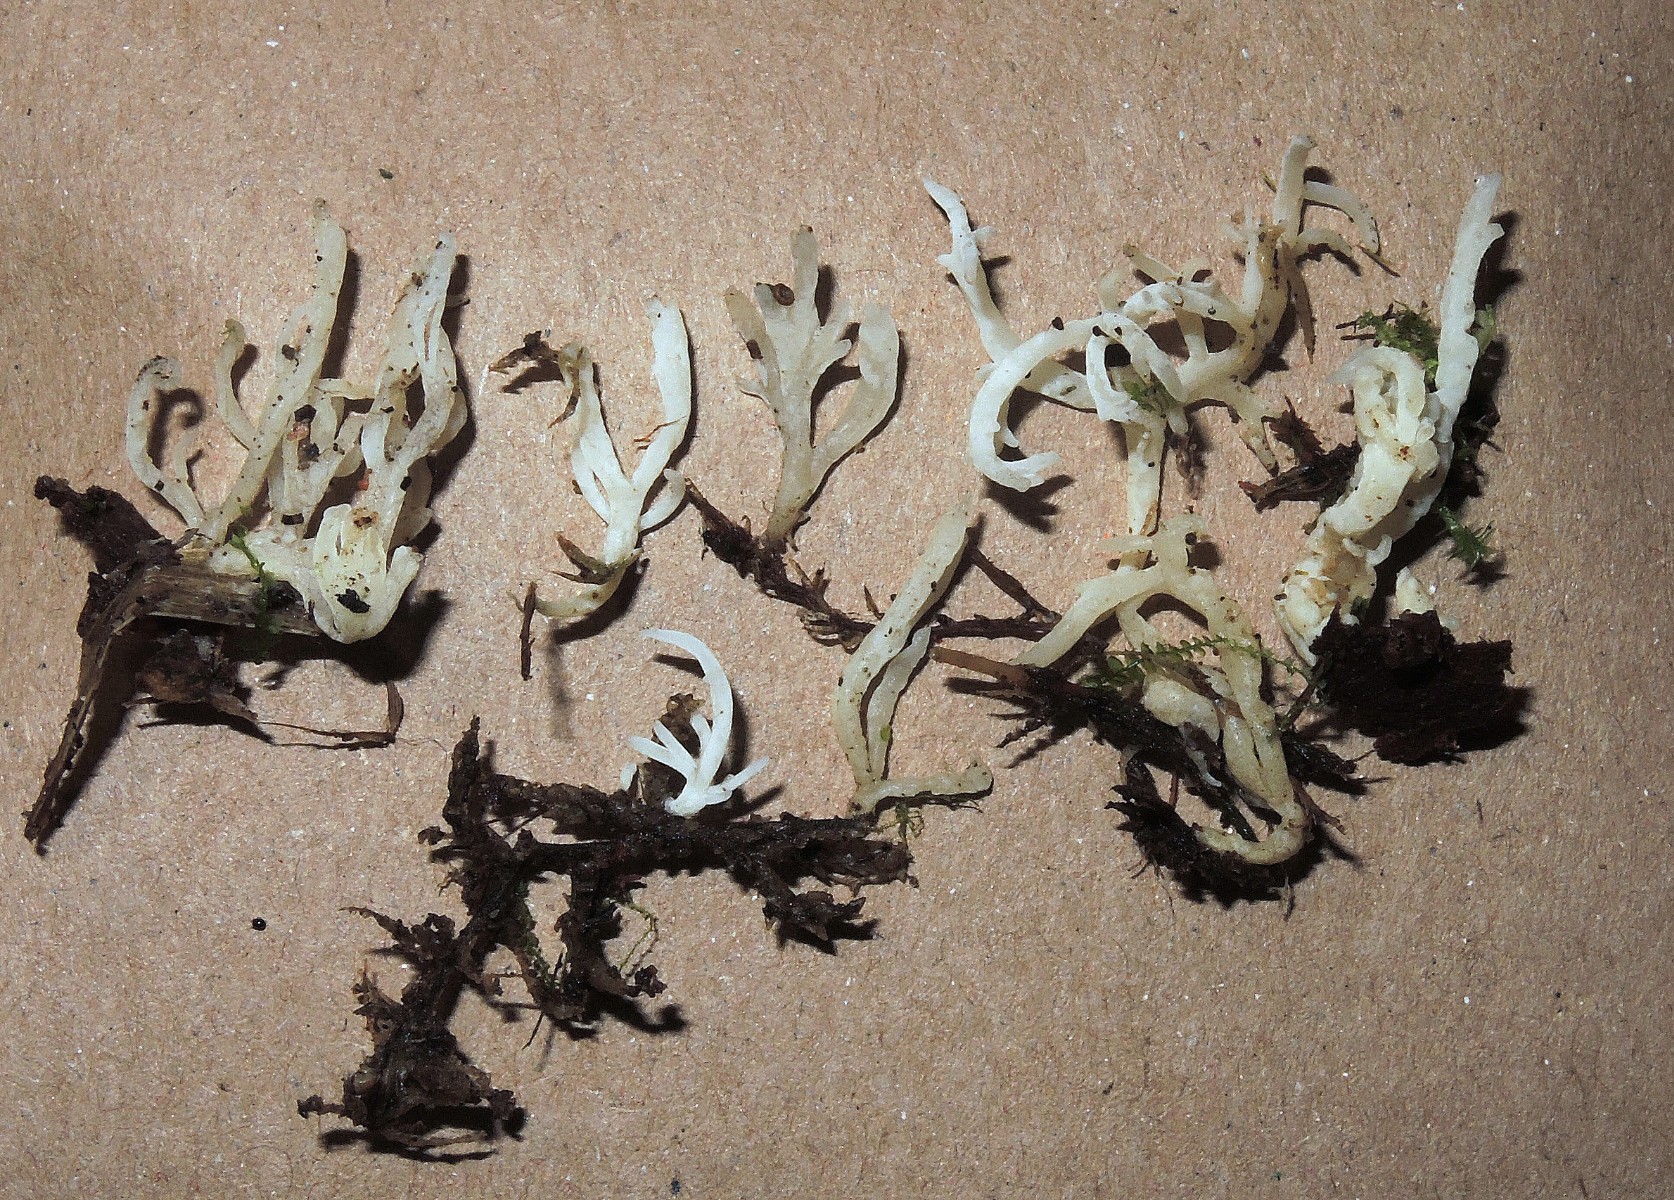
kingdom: Fungi
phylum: Basidiomycota
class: Agaricomycetes
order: Cantharellales
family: Hydnaceae
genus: Clavulina
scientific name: Clavulina
